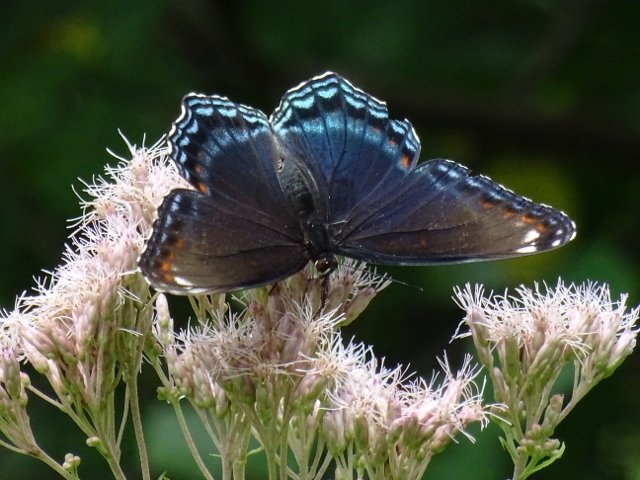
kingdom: Animalia
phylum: Arthropoda
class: Insecta
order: Lepidoptera
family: Nymphalidae
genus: Limenitis
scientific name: Limenitis astyanax
